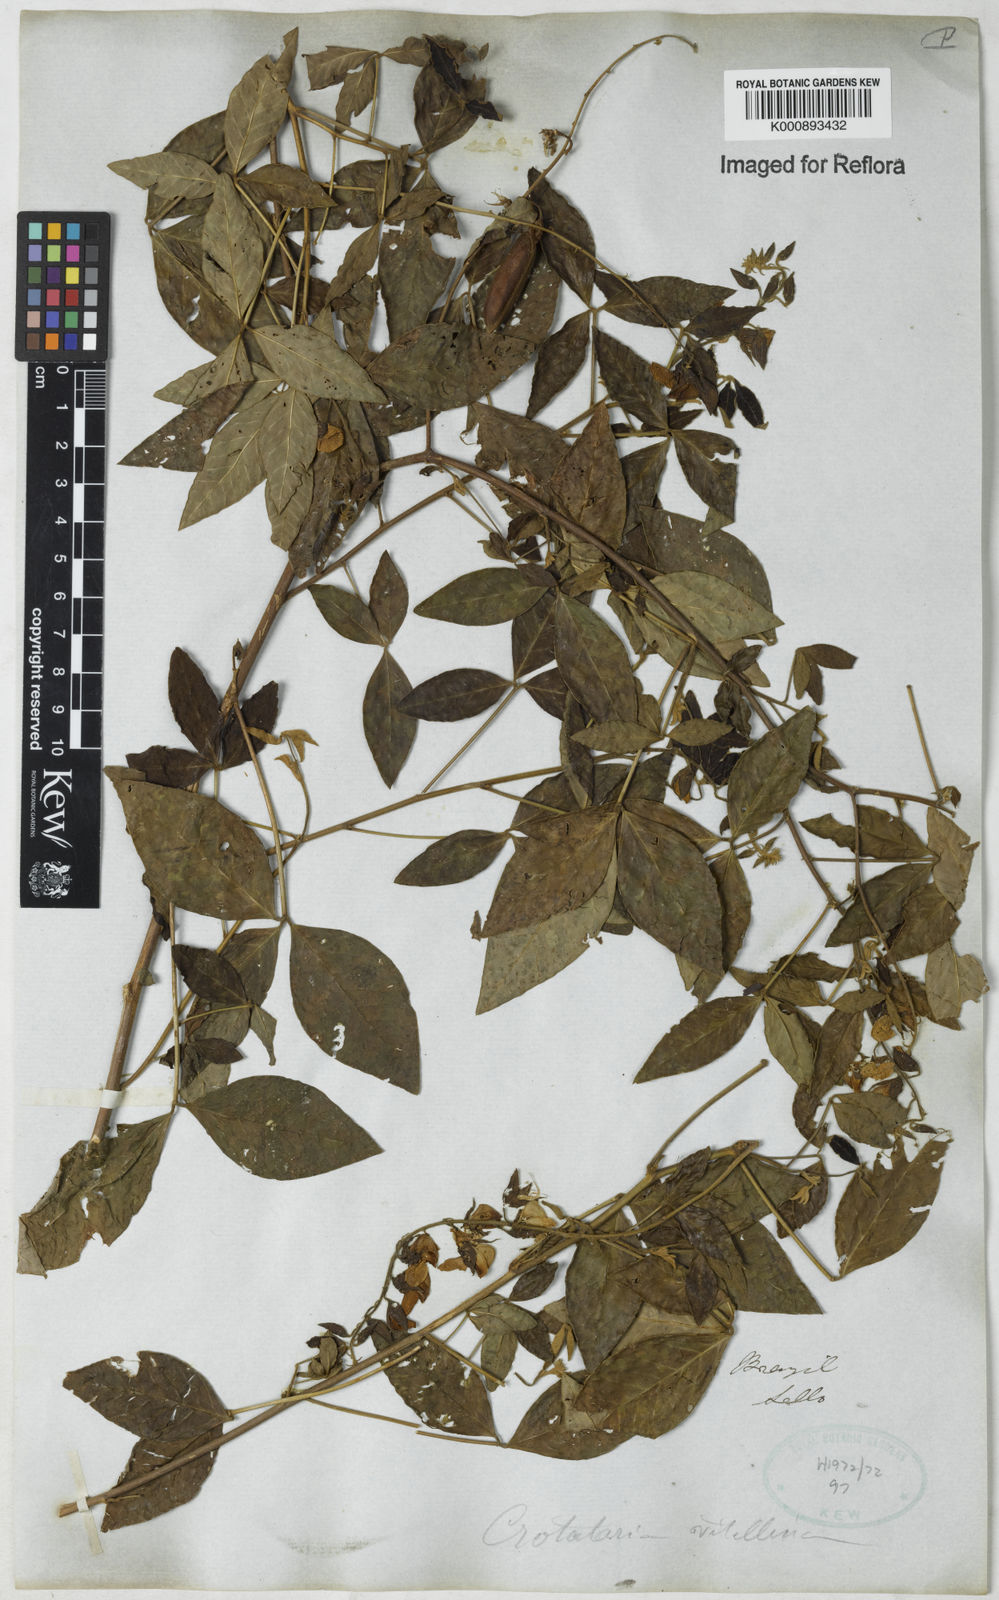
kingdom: Plantae
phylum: Tracheophyta
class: Magnoliopsida
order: Fabales
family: Fabaceae
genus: Crotalaria
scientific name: Crotalaria vitellina
